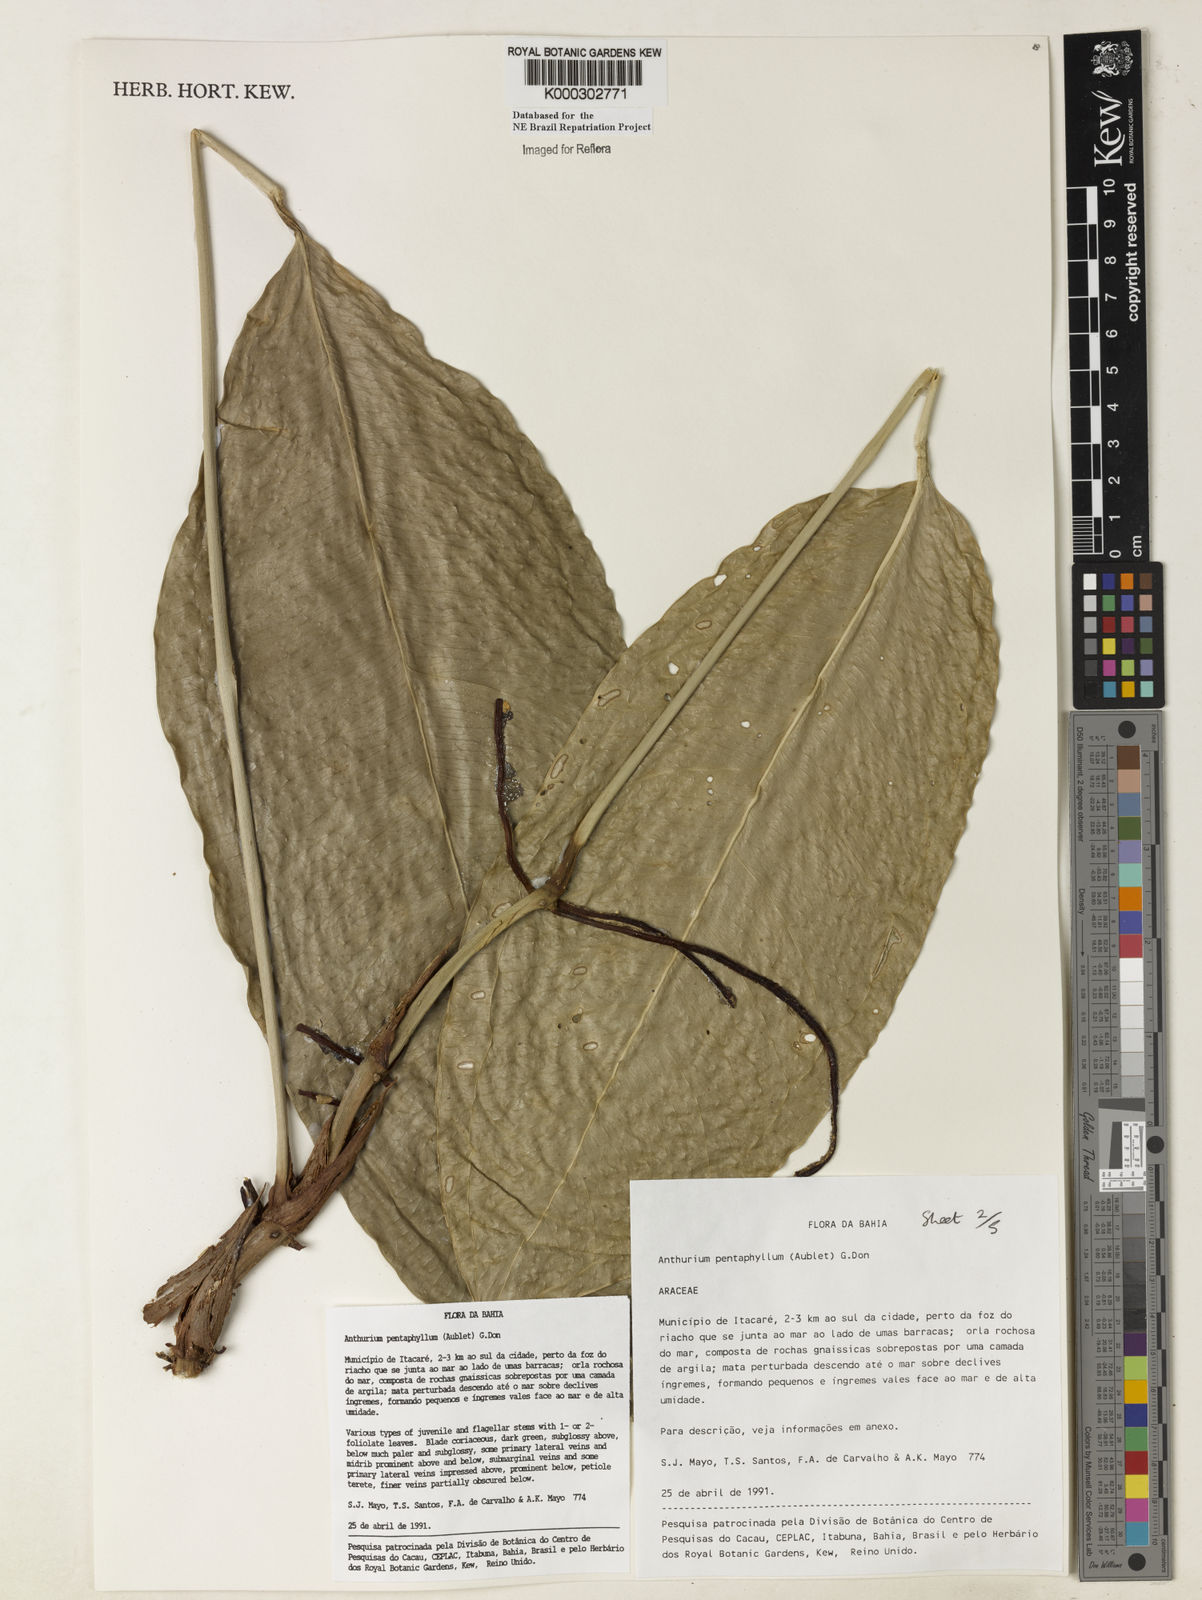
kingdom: Plantae
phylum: Tracheophyta
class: Liliopsida
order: Alismatales
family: Araceae
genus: Anthurium
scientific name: Anthurium pentaphyllum
